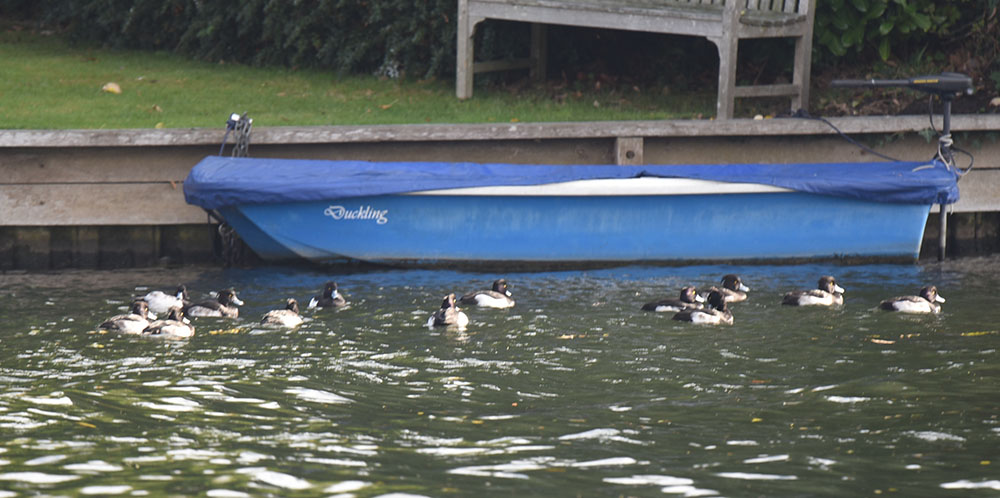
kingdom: Animalia
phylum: Chordata
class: Aves
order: Anseriformes
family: Anatidae
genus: Aythya
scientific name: Aythya fuligula
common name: Tufted duck
